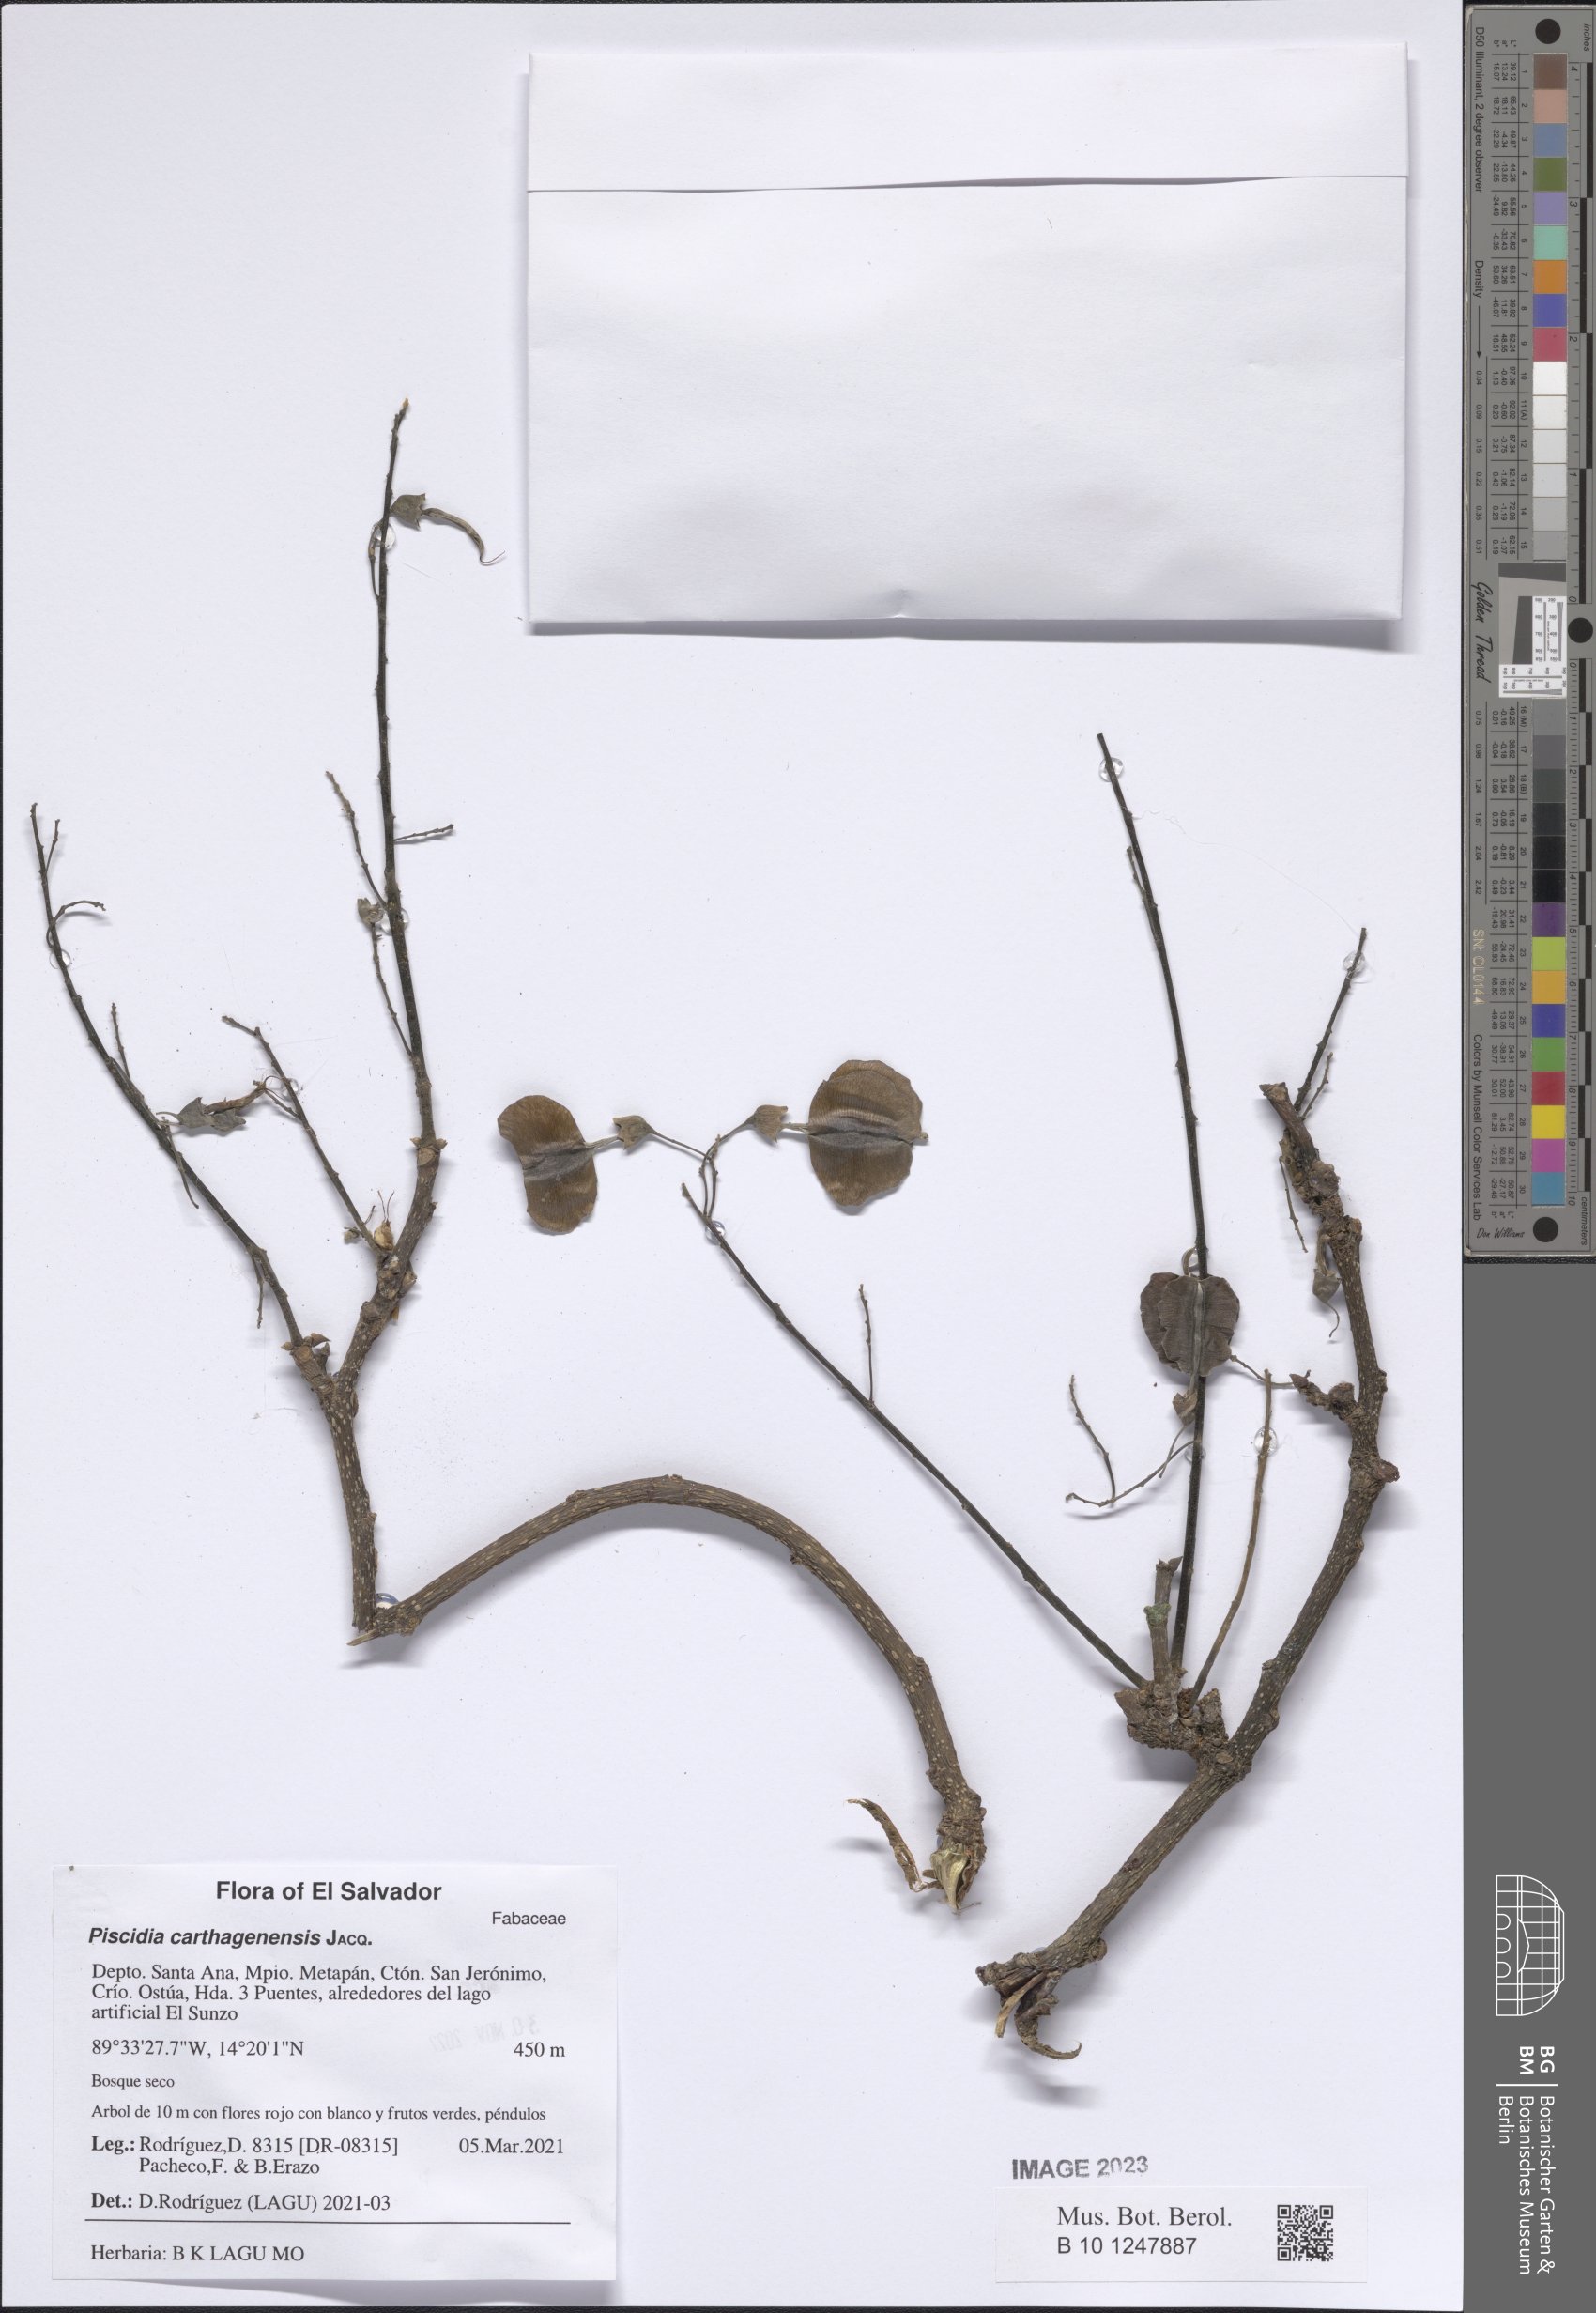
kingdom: Plantae
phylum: Tracheophyta
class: Magnoliopsida
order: Fabales
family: Fabaceae
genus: Piscidia
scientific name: Piscidia carthagenensis
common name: Stinkwood
